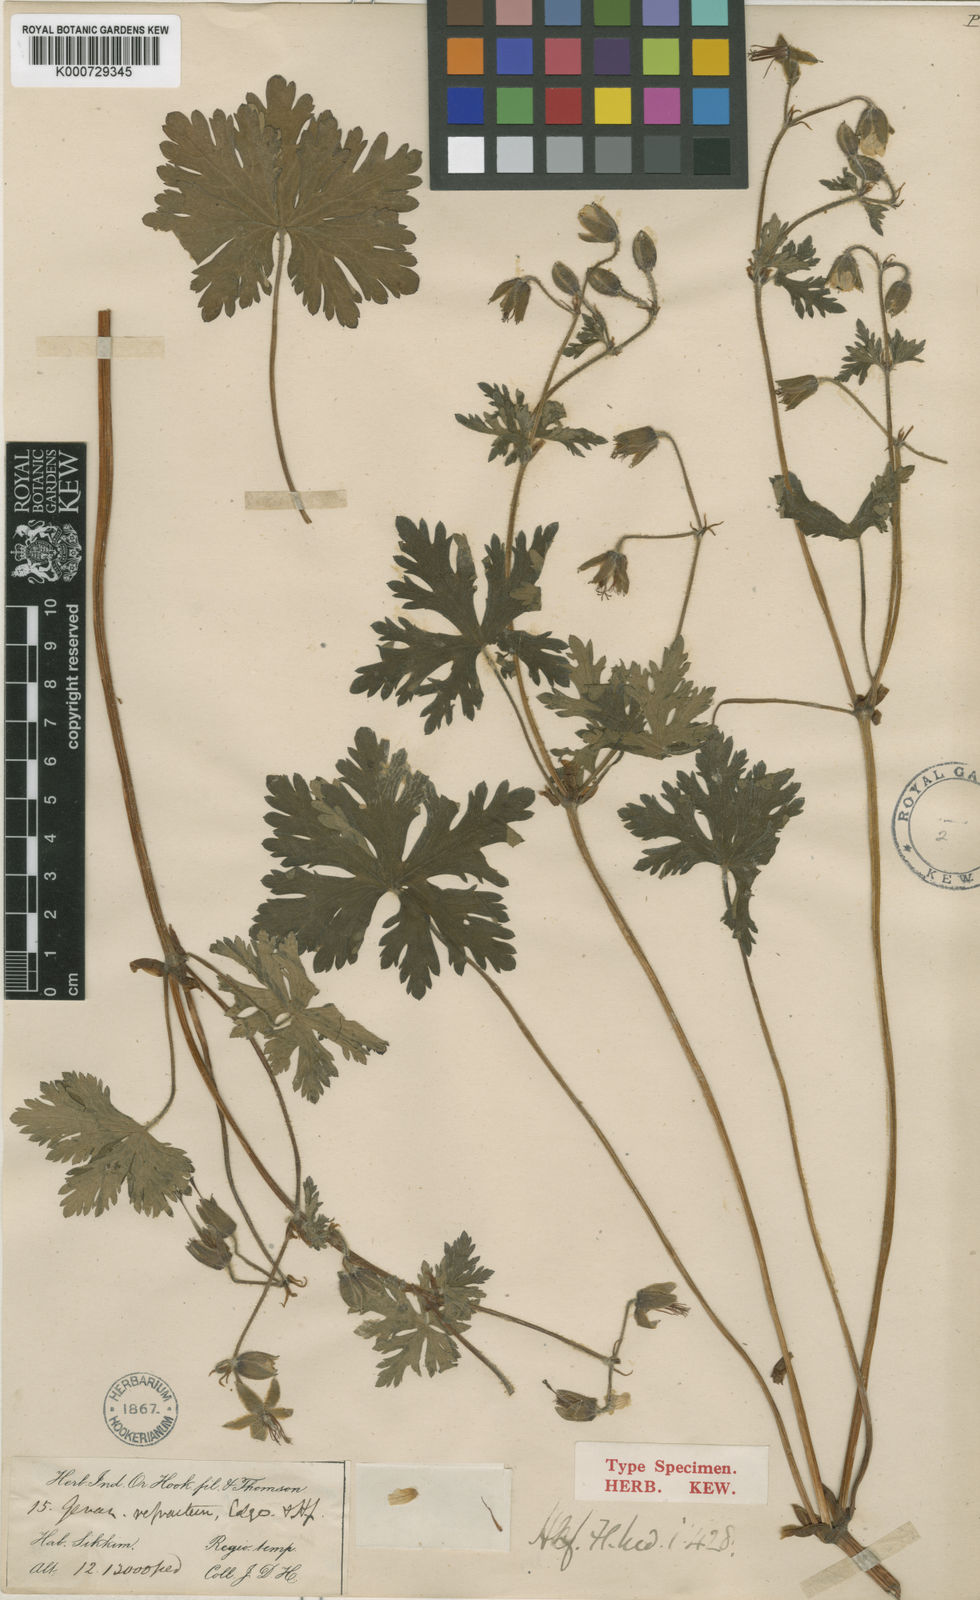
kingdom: Plantae
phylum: Tracheophyta
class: Magnoliopsida
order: Geraniales
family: Geraniaceae
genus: Geranium
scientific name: Geranium refractum
